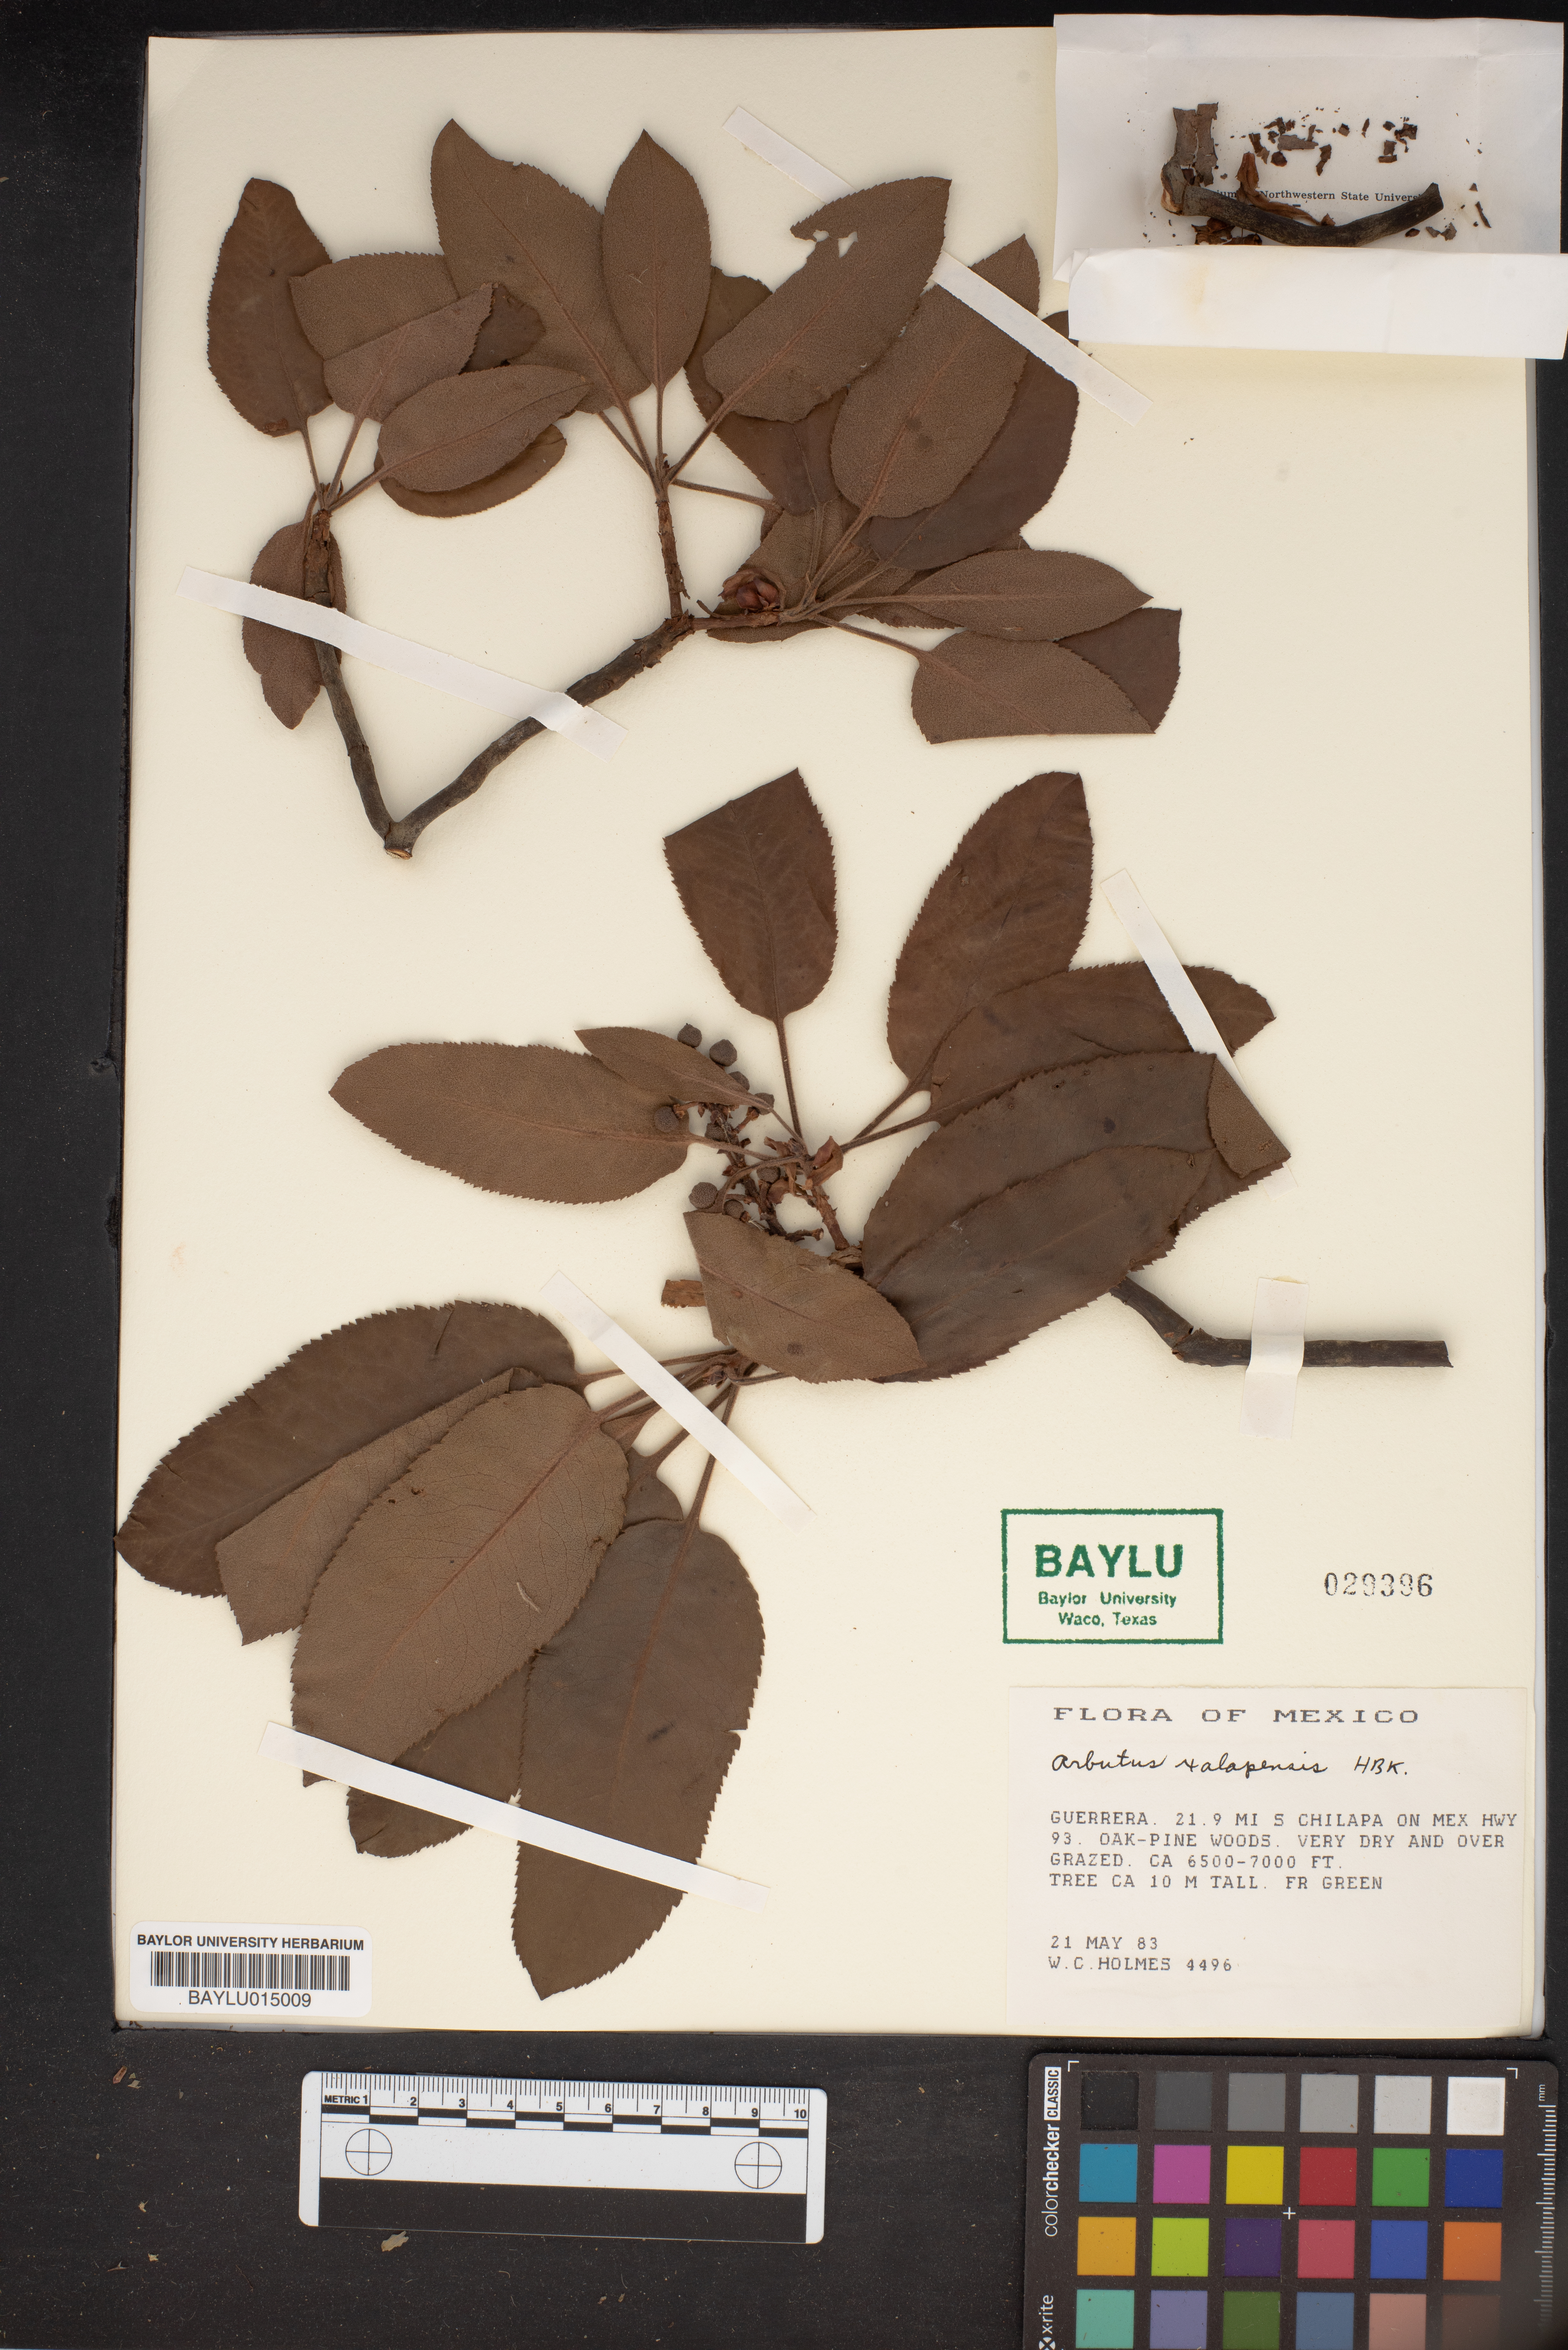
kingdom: Plantae
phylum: Tracheophyta
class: Magnoliopsida
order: Ericales
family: Ericaceae
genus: Arbutus
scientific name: Arbutus xalapensis
